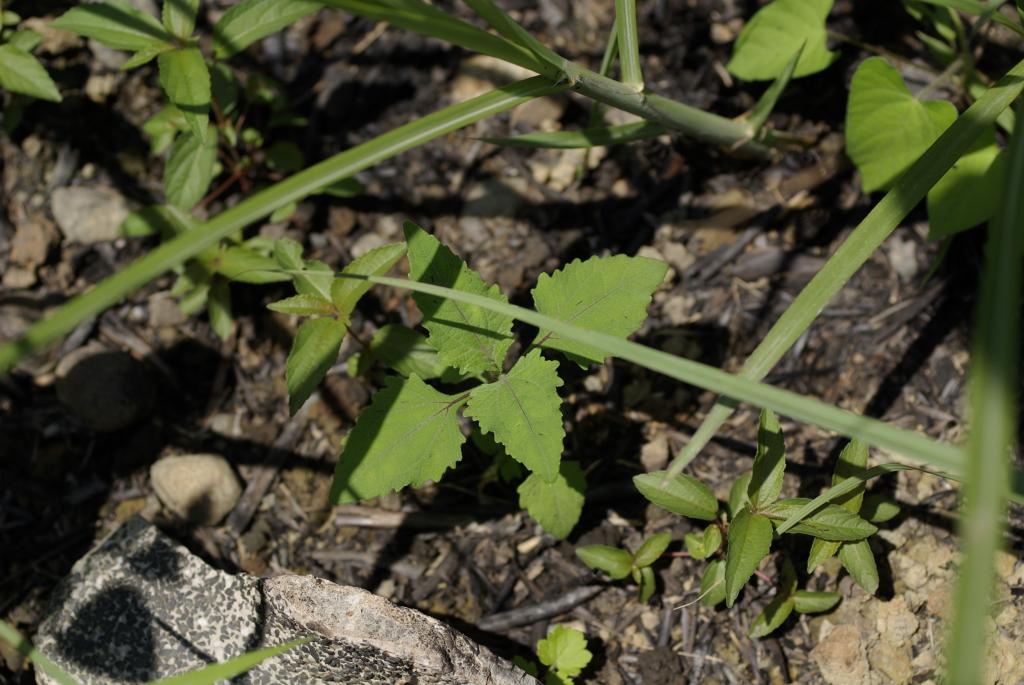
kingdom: Plantae
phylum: Tracheophyta
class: Magnoliopsida
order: Asterales
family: Asteraceae
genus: Sigesbeckia
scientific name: Sigesbeckia orientalis
